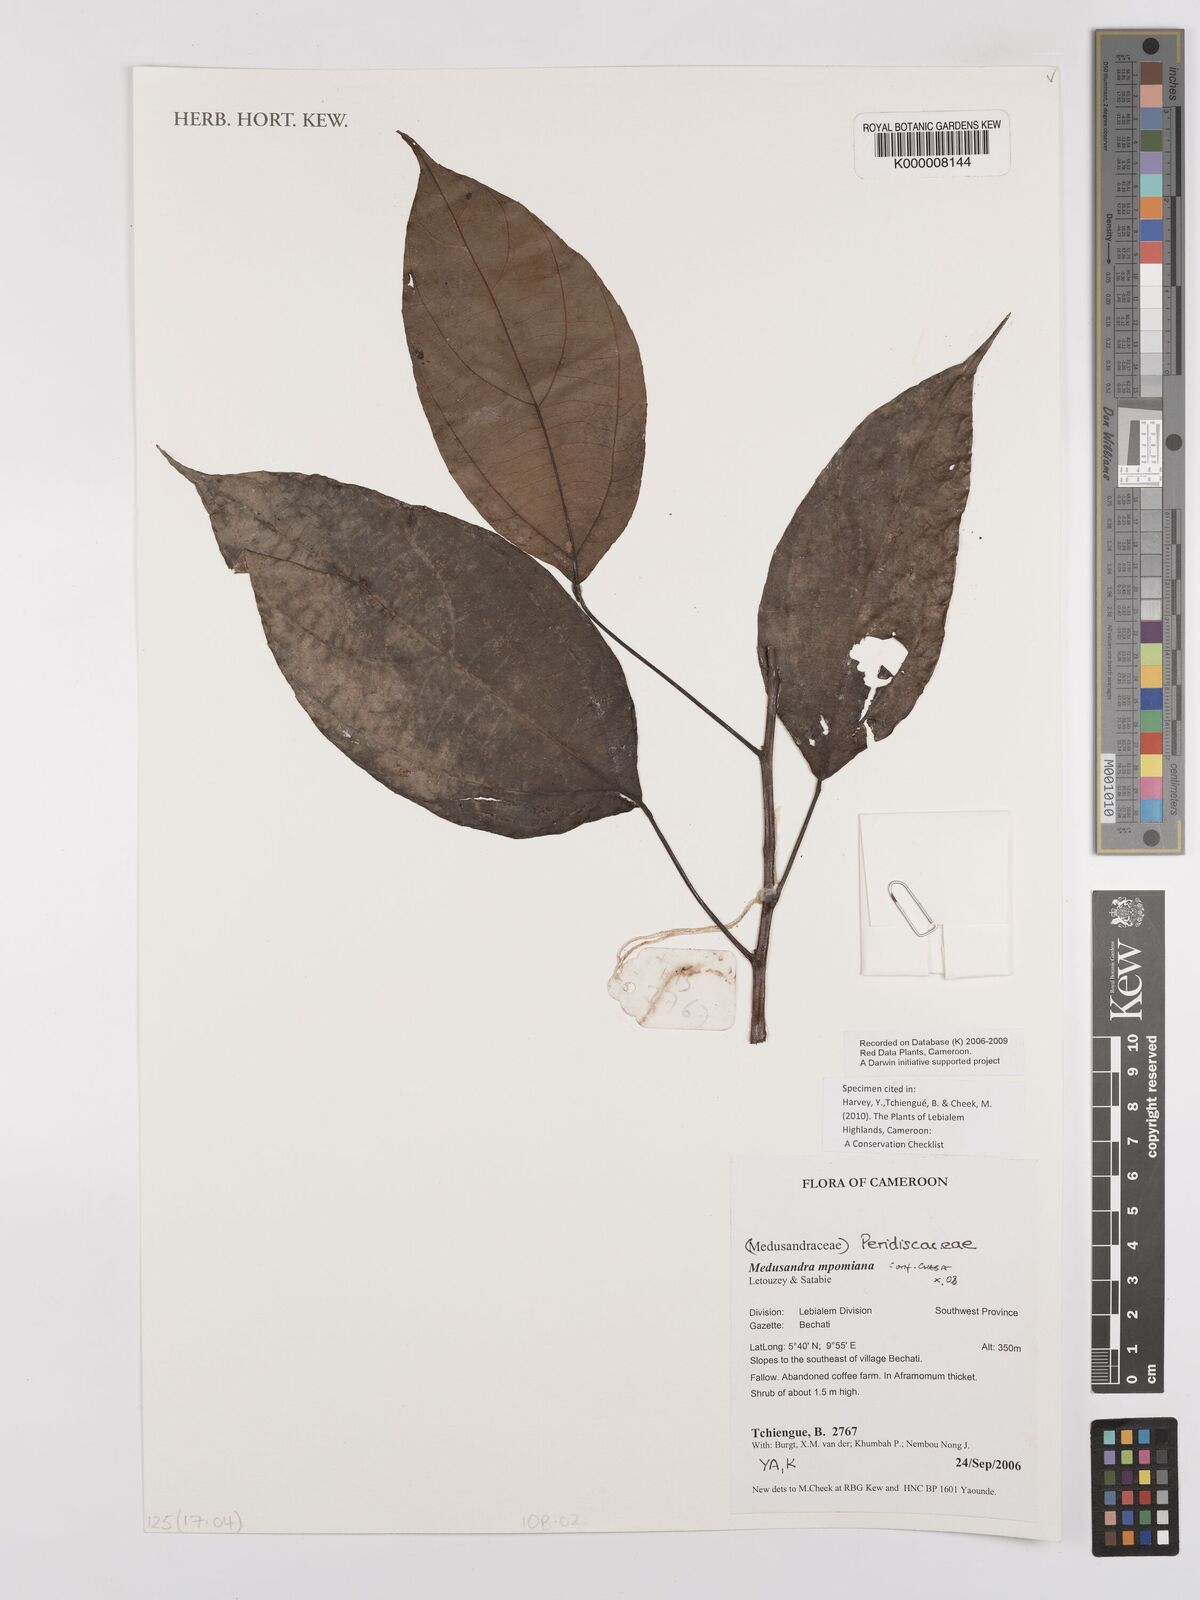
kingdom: Plantae
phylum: Tracheophyta
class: Magnoliopsida
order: Saxifragales
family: Peridiscaceae
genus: Medusandra
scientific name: Medusandra mpomiana
